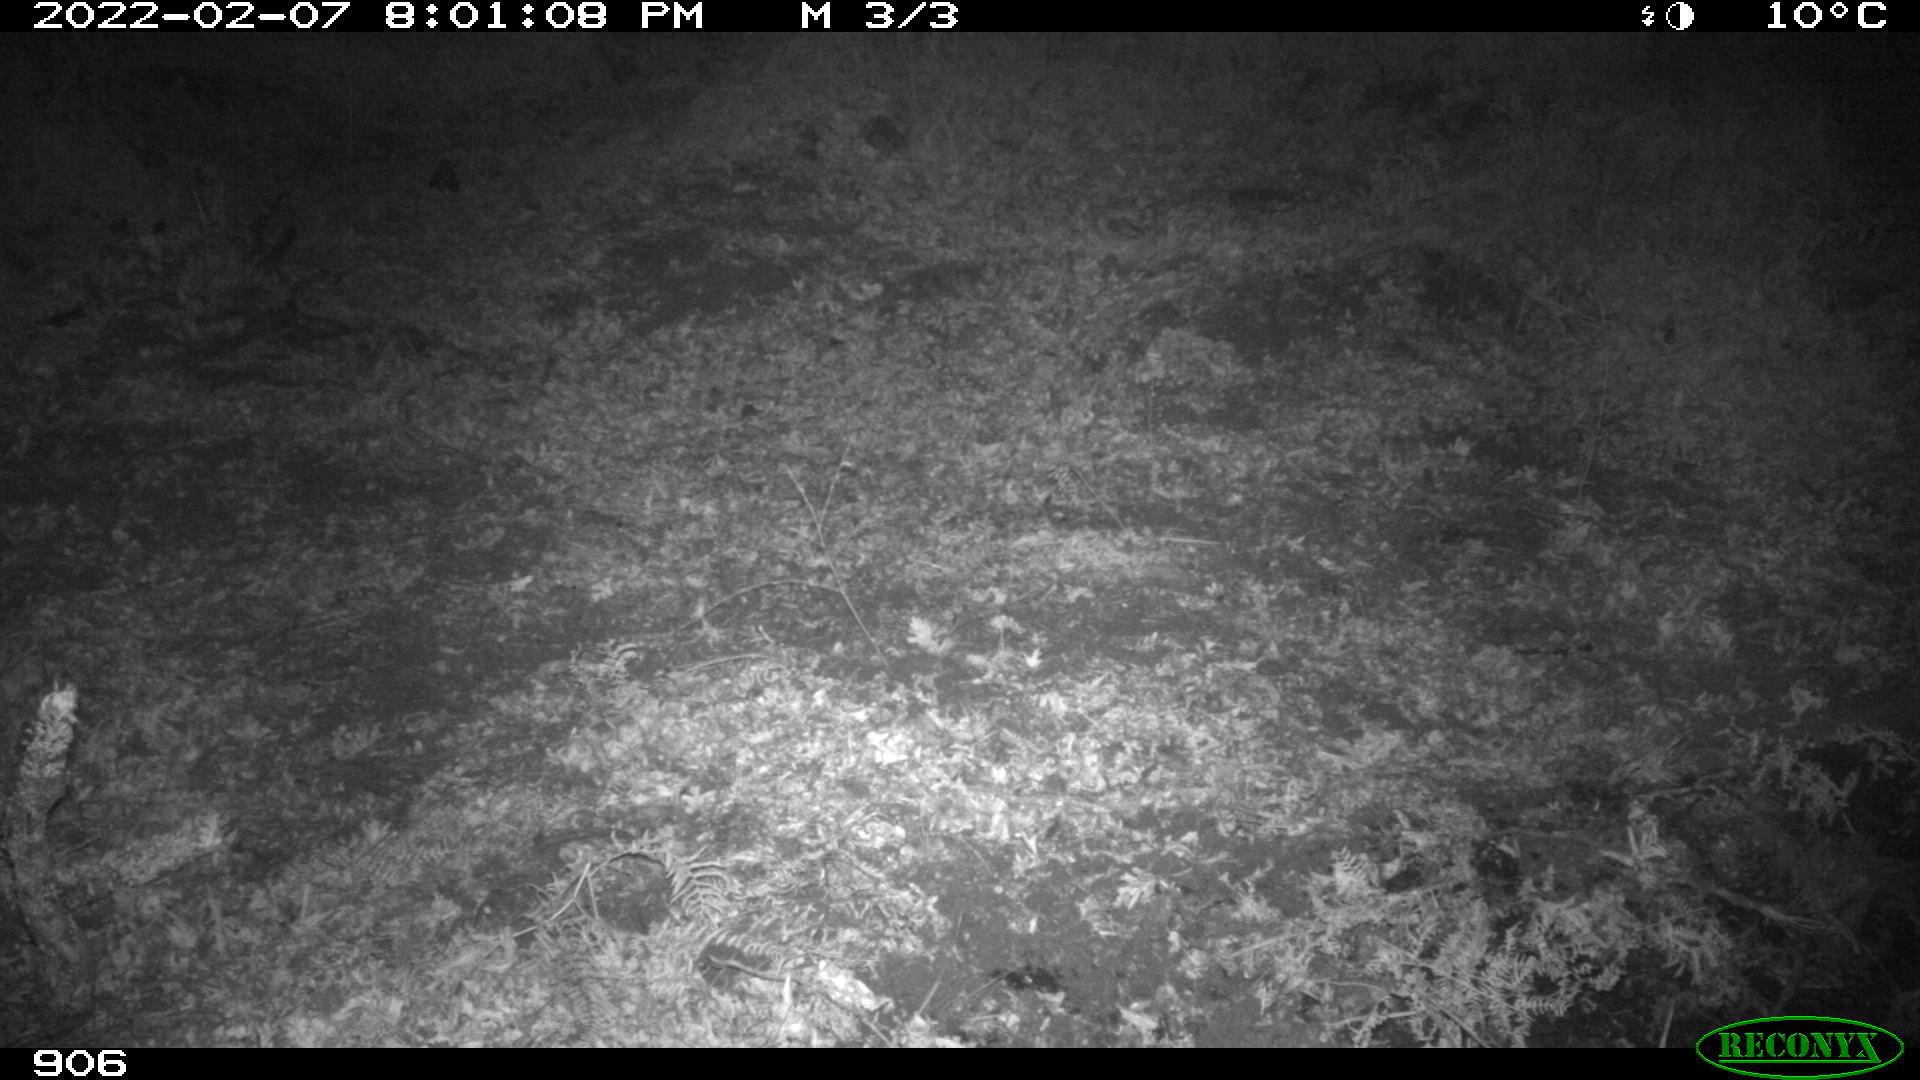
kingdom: Animalia
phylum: Chordata
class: Mammalia
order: Artiodactyla
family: Suidae
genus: Sus
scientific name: Sus scrofa
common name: Wild boar
